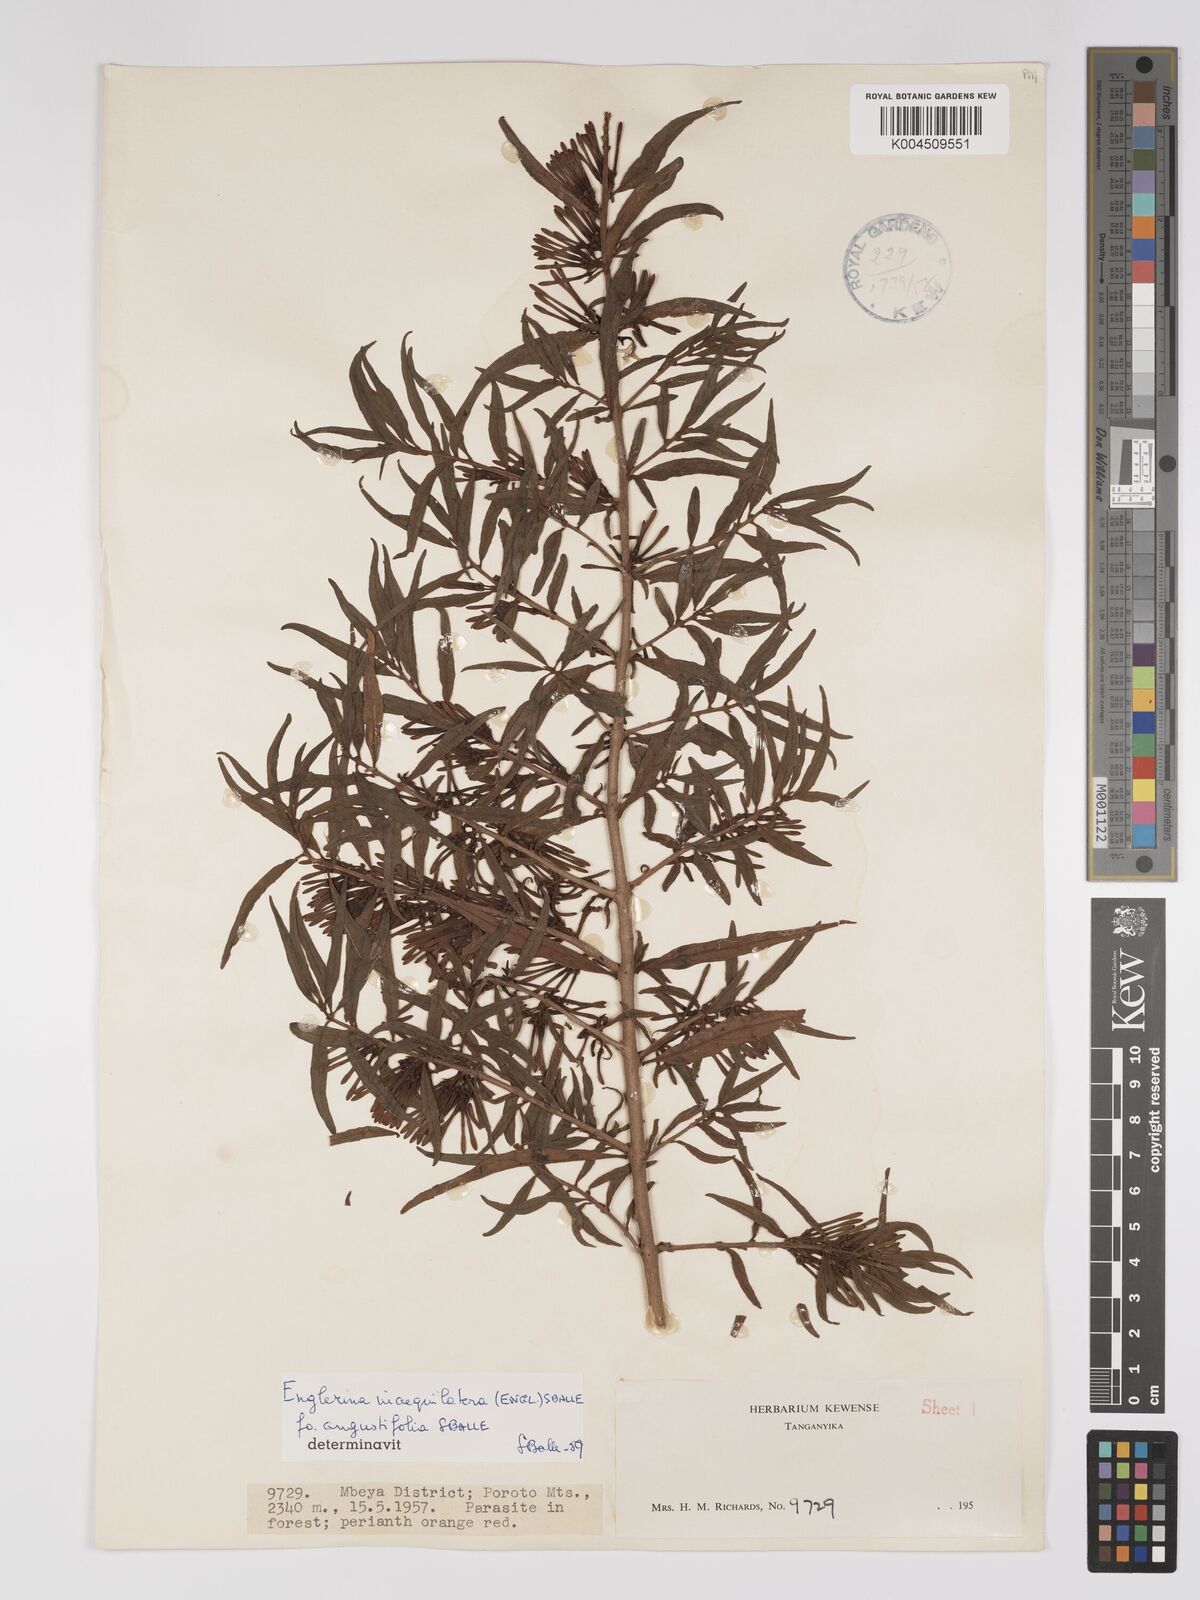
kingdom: Plantae
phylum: Tracheophyta
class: Magnoliopsida
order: Santalales
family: Loranthaceae
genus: Englerina
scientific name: Englerina inaequilatera
